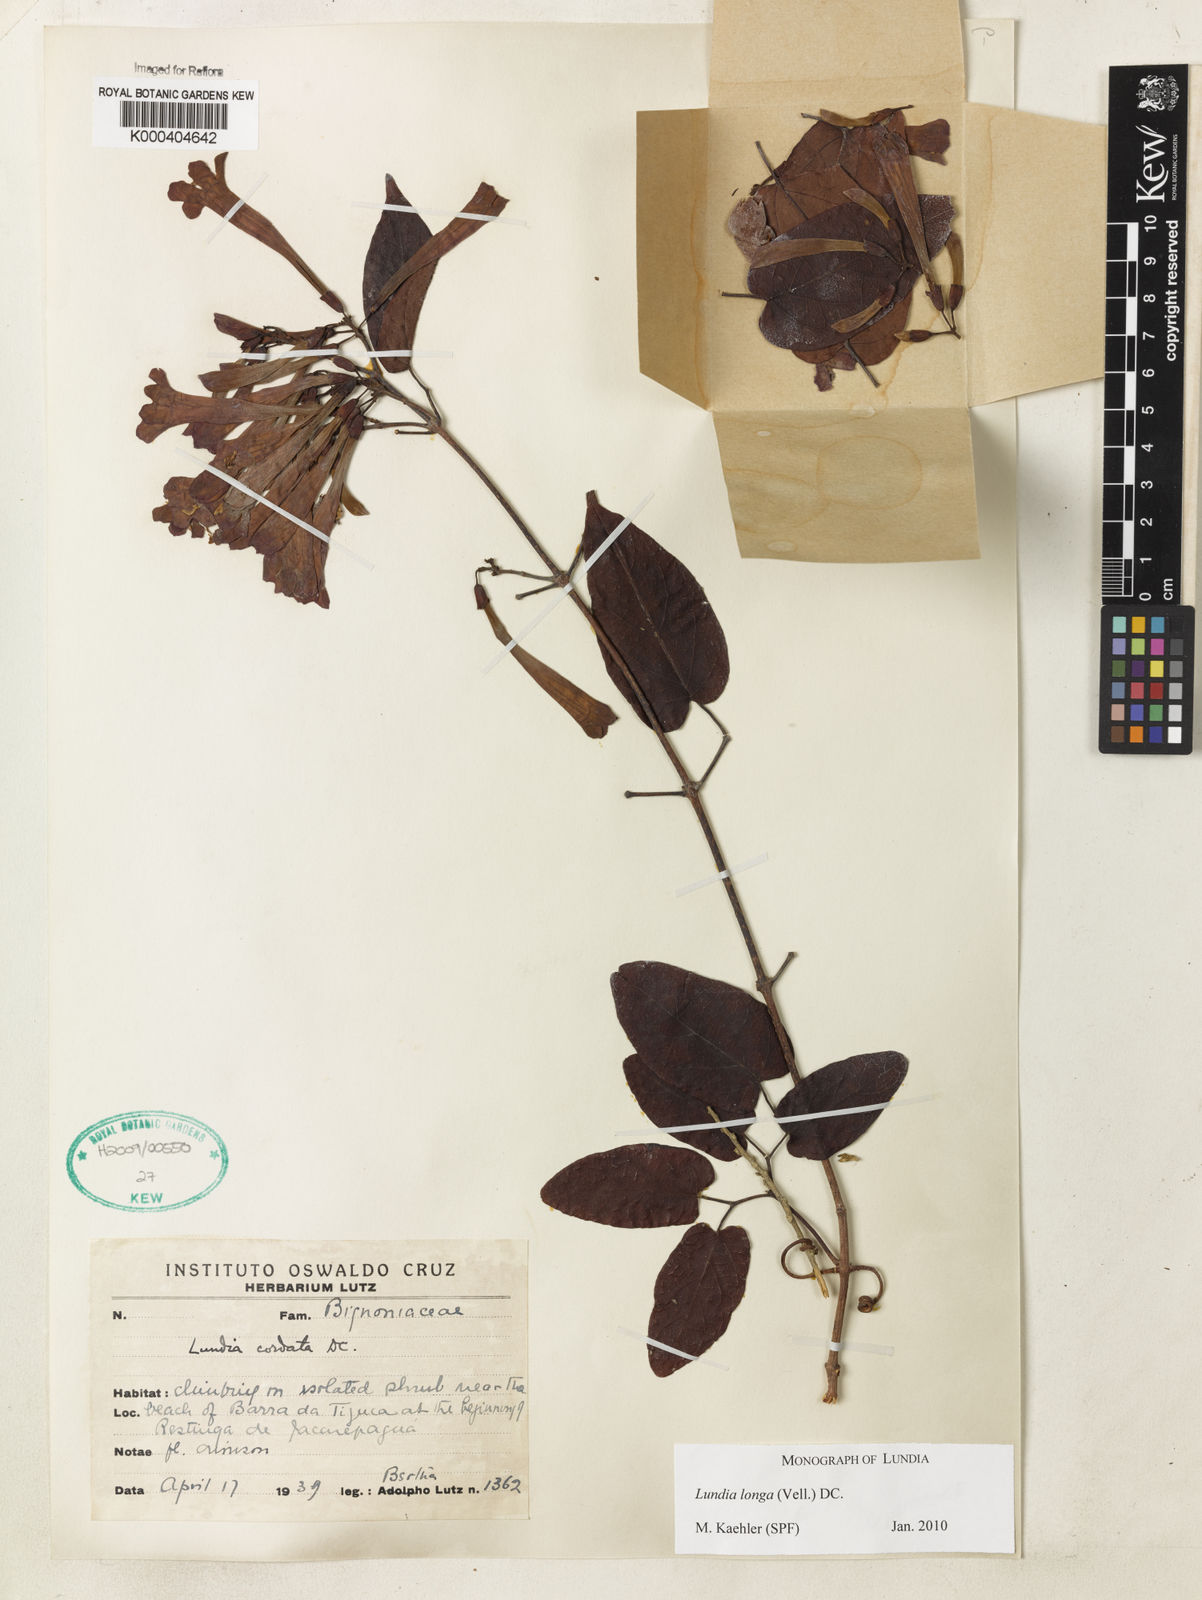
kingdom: Plantae
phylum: Tracheophyta
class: Magnoliopsida
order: Lamiales
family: Bignoniaceae
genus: Lundia
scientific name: Lundia longa
